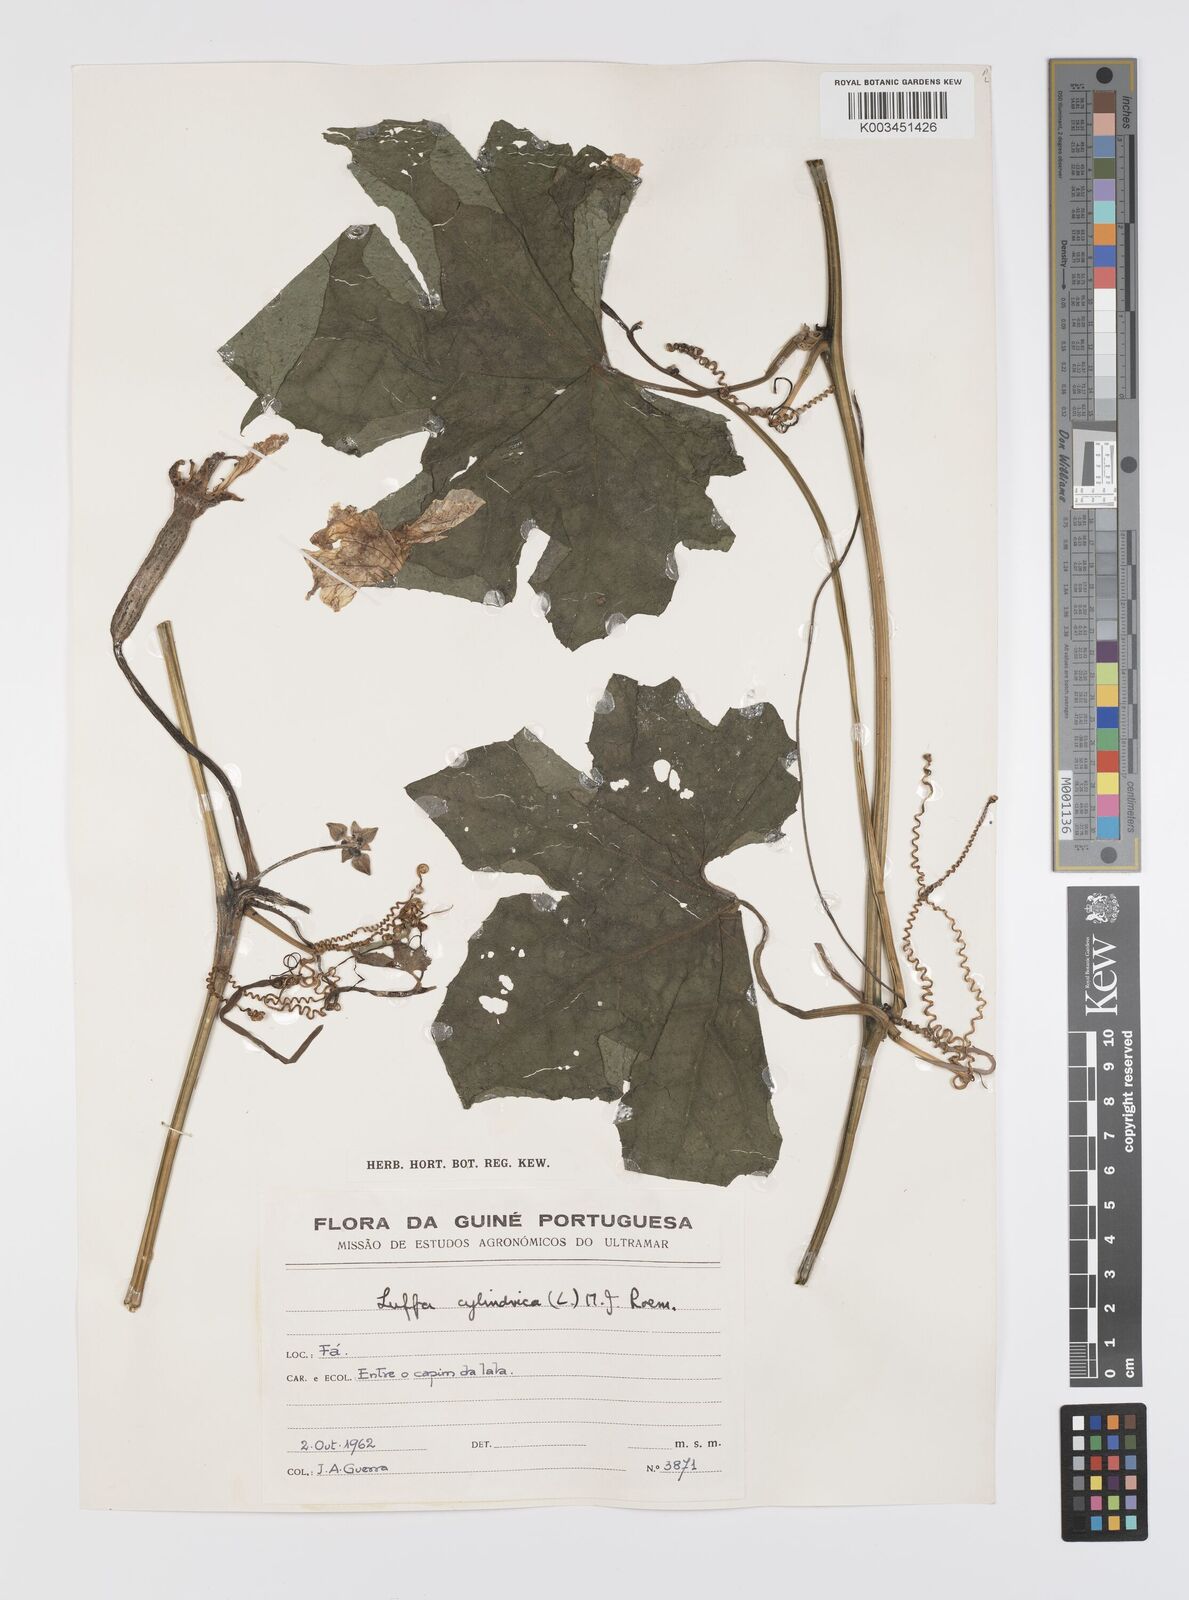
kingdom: Plantae
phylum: Tracheophyta
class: Magnoliopsida
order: Cucurbitales
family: Cucurbitaceae
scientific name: Cucurbitaceae
